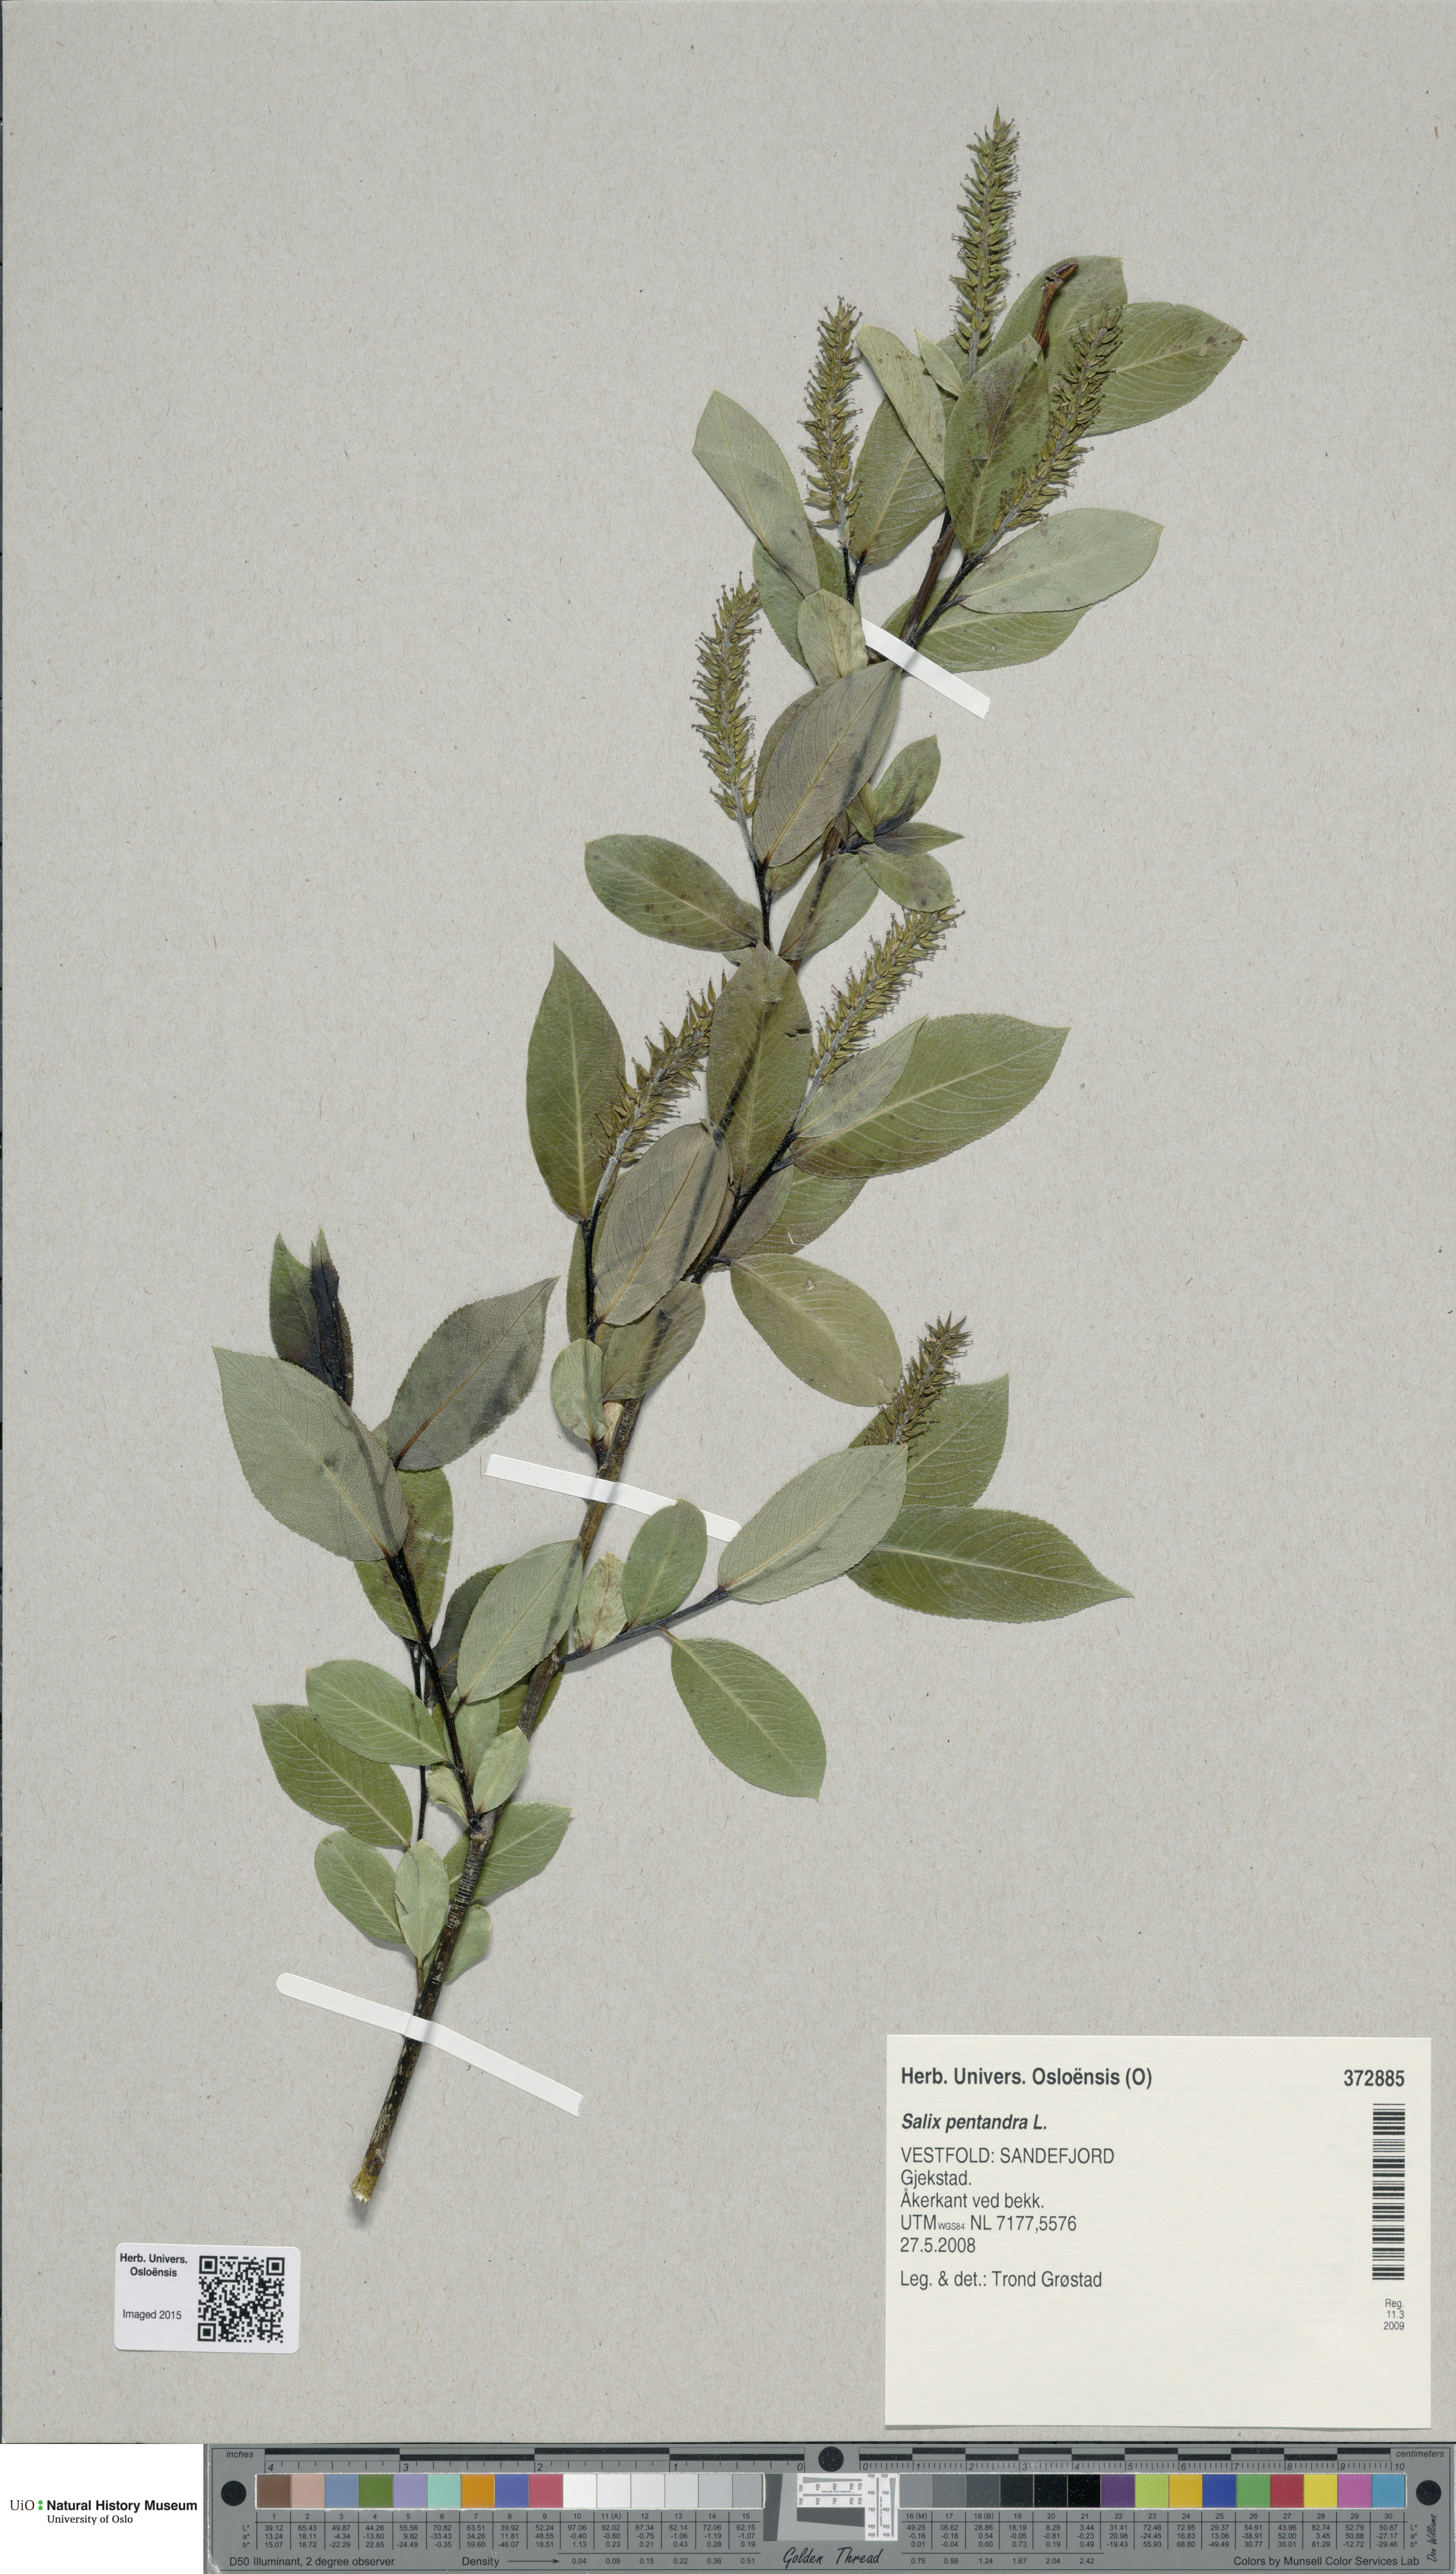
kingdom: Plantae
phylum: Tracheophyta
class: Magnoliopsida
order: Malpighiales
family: Salicaceae
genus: Salix
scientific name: Salix pentandra
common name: Bay willow
